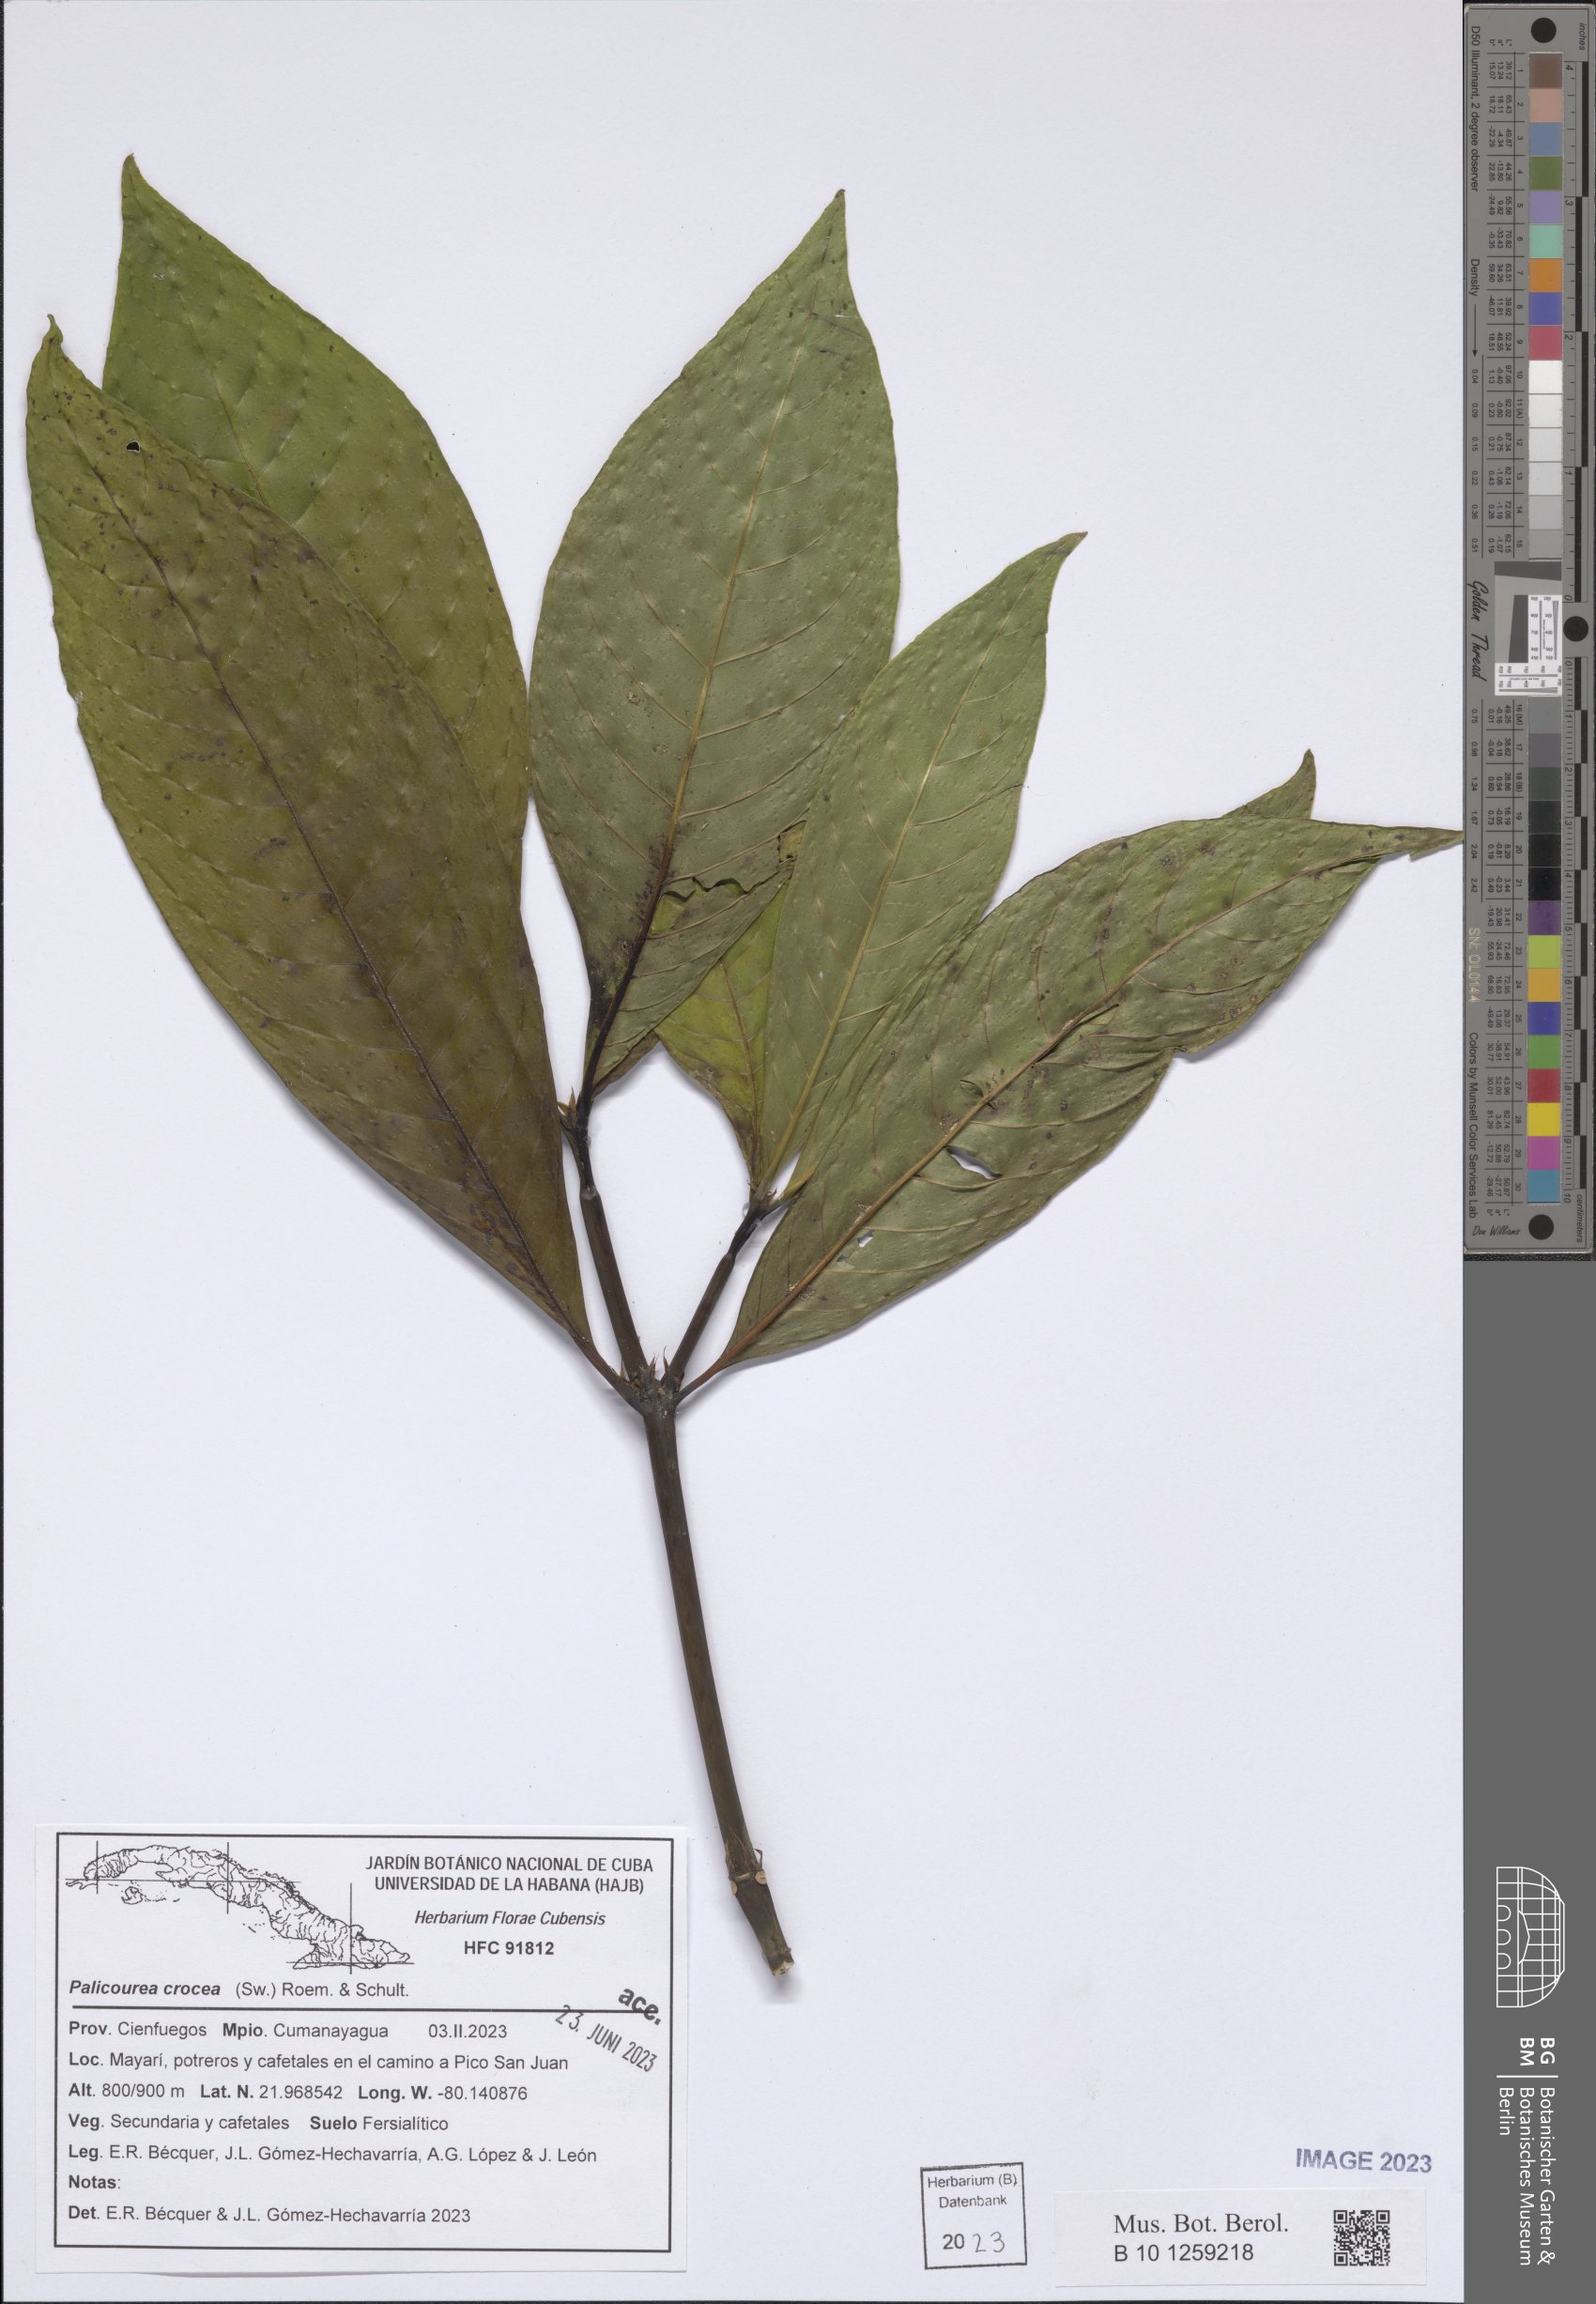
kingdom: Plantae
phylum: Tracheophyta
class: Magnoliopsida
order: Gentianales
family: Rubiaceae
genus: Palicourea
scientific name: Palicourea crocea
